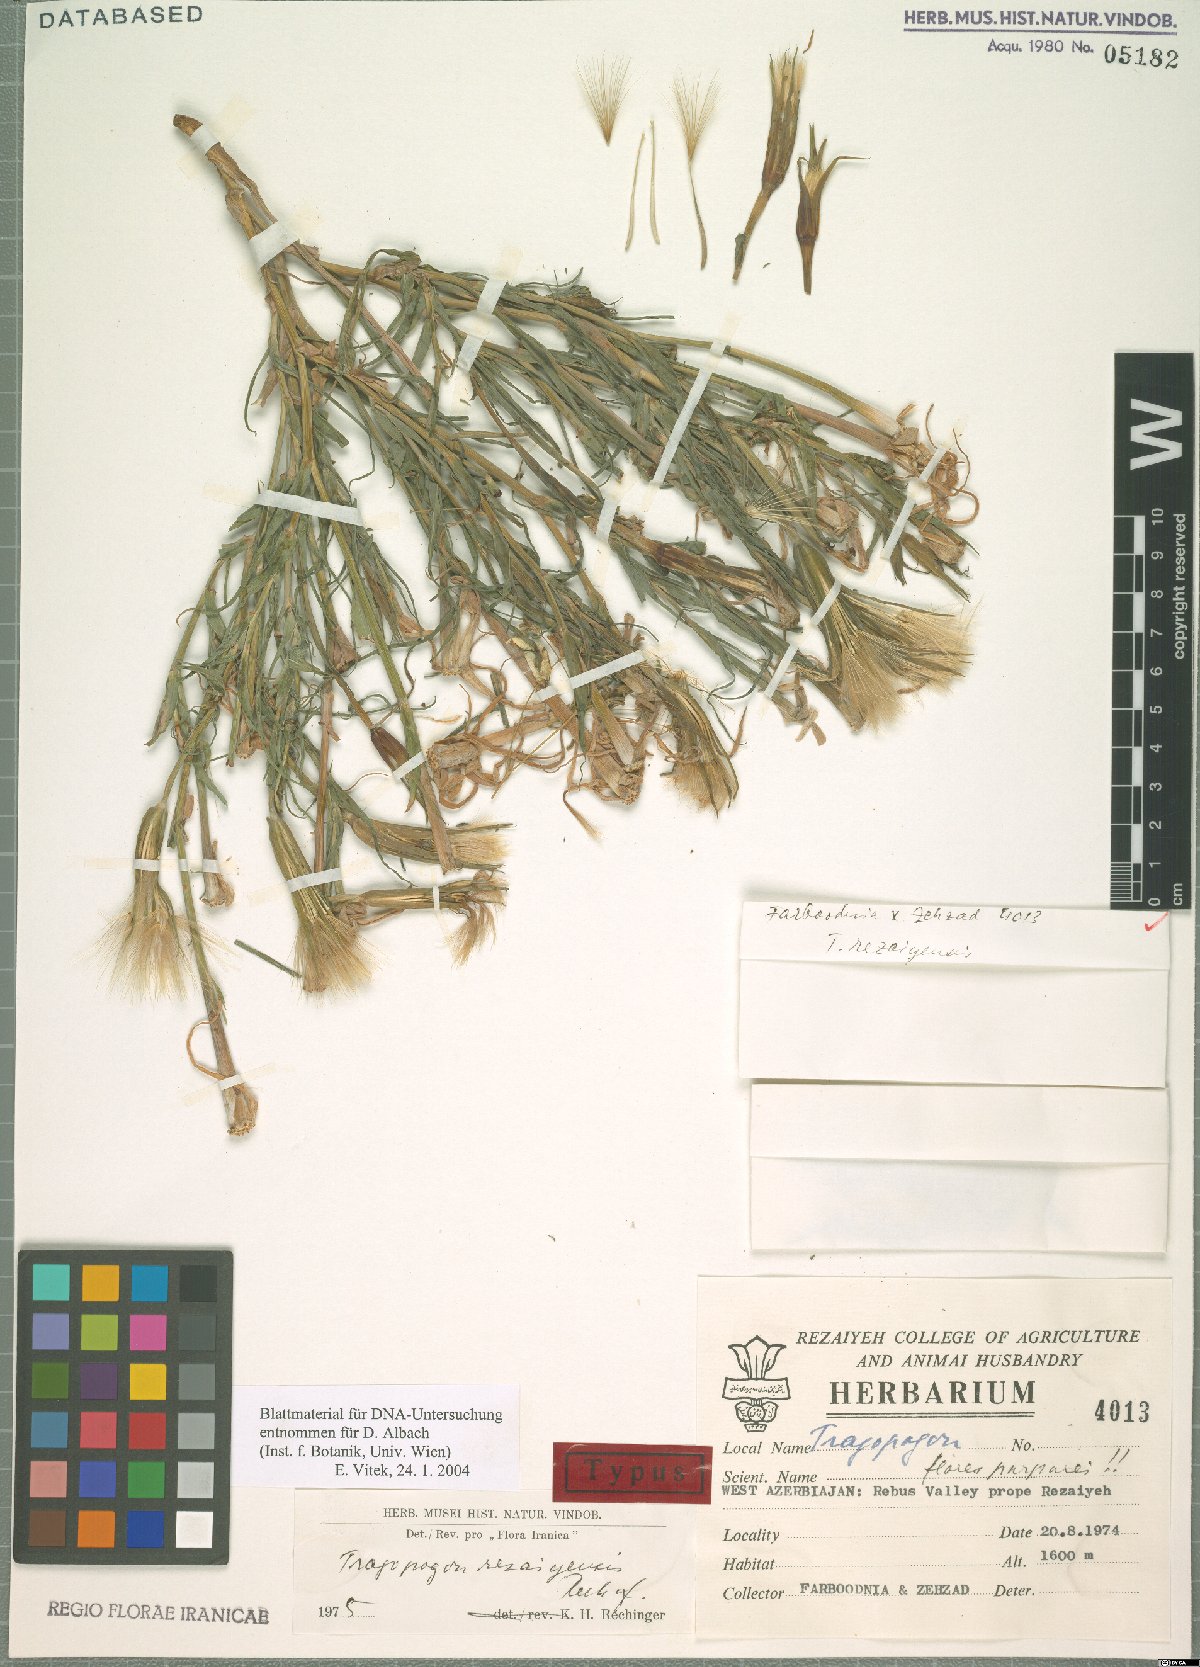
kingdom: Plantae
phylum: Tracheophyta
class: Magnoliopsida
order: Asterales
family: Asteraceae
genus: Tragopogon
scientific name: Tragopogon rezaiyensis
